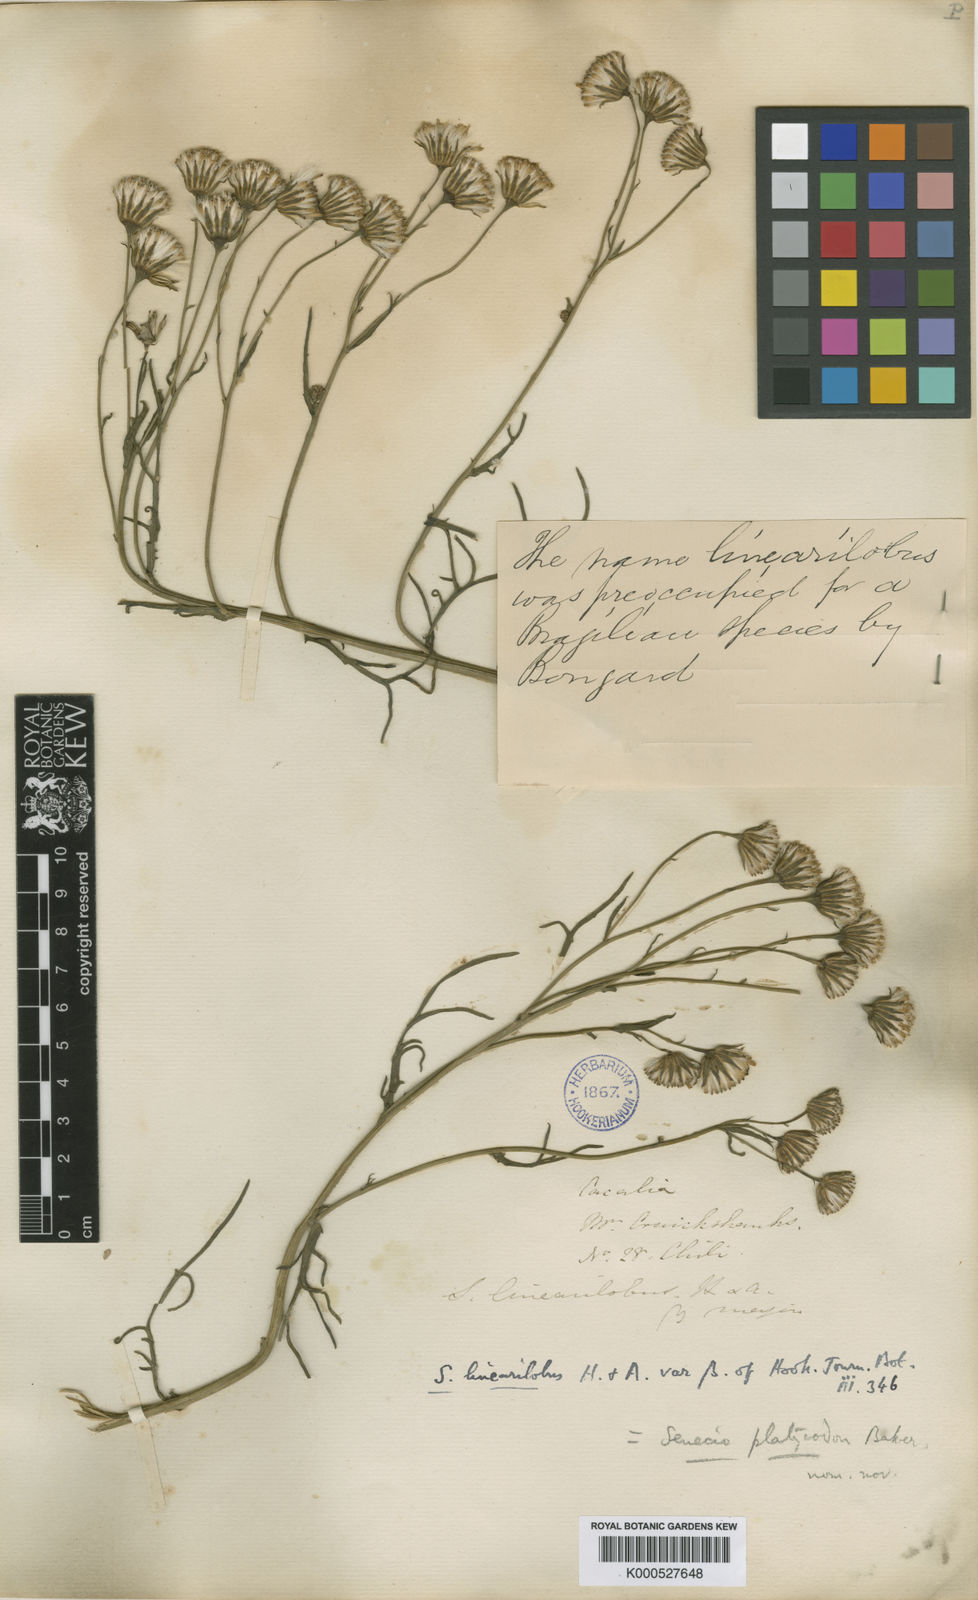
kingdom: Plantae
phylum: Tracheophyta
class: Magnoliopsida
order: Asterales
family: Asteraceae
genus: Senecio
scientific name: Senecio hakeifolius
